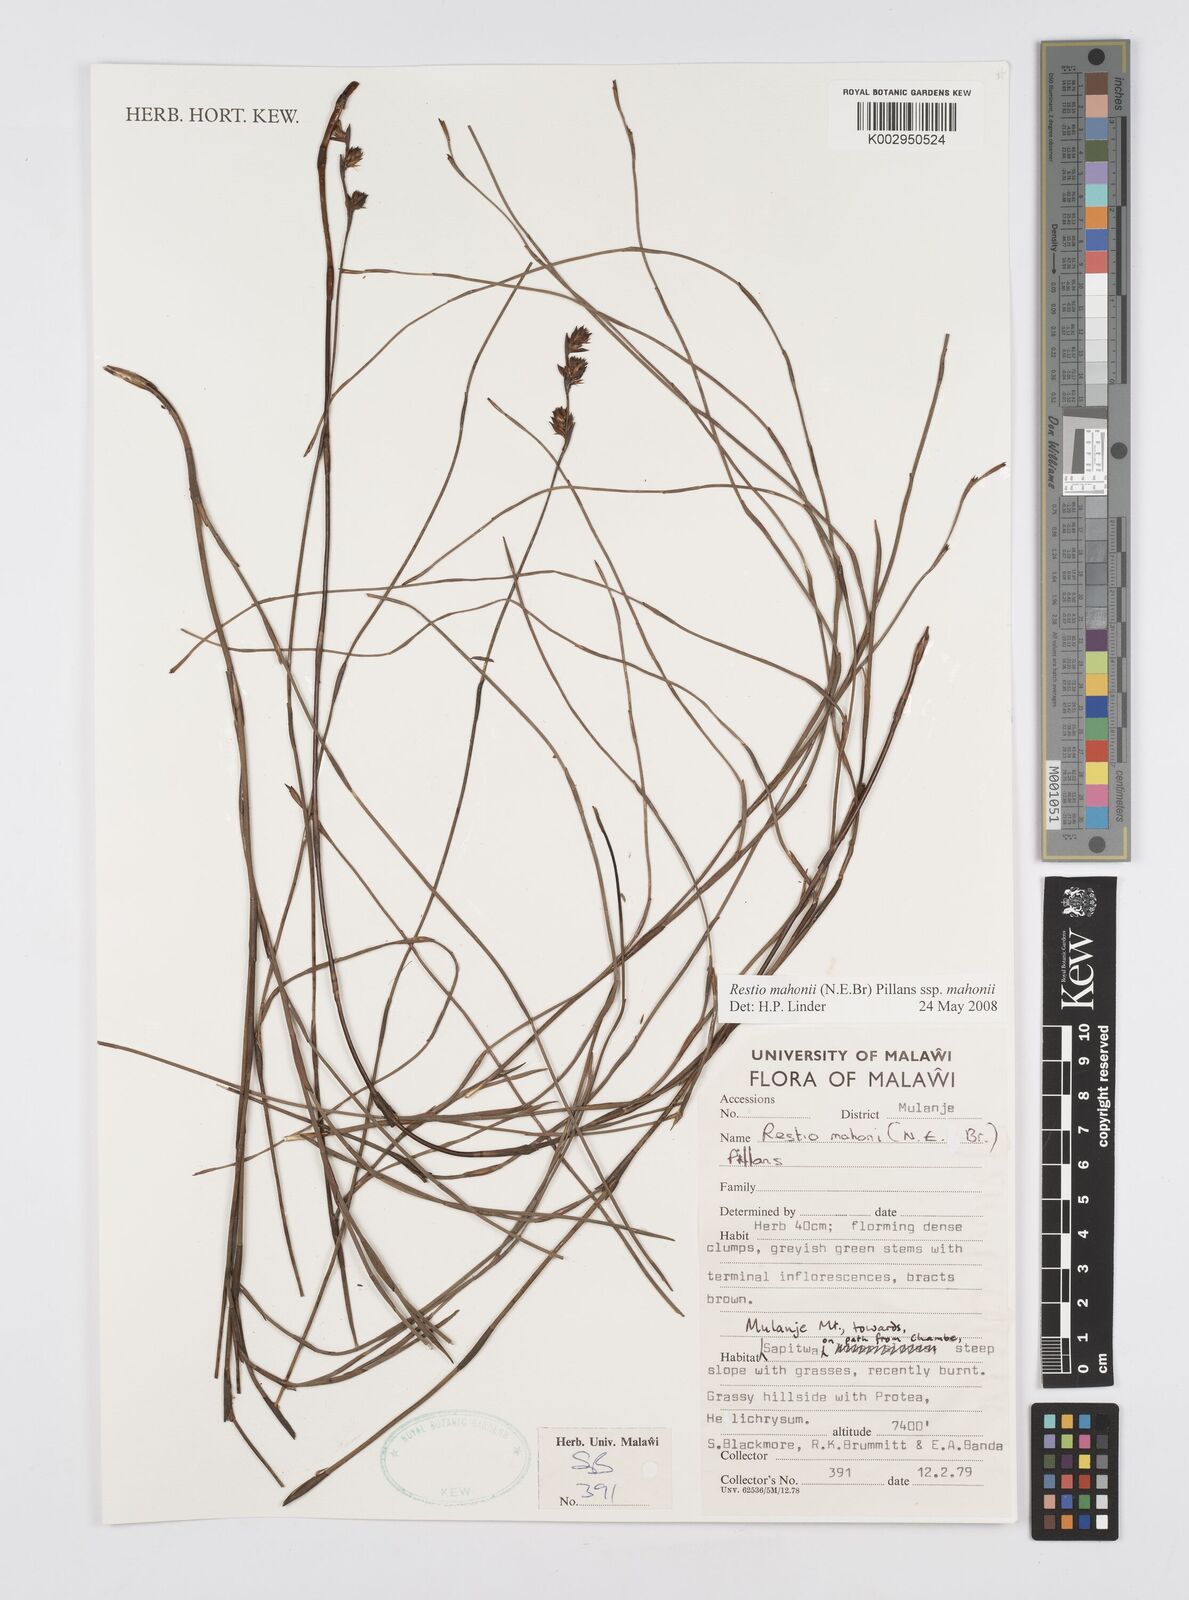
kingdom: Plantae
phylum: Tracheophyta
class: Liliopsida
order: Poales
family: Restionaceae
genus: Platycaulos
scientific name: Platycaulos mahonii
